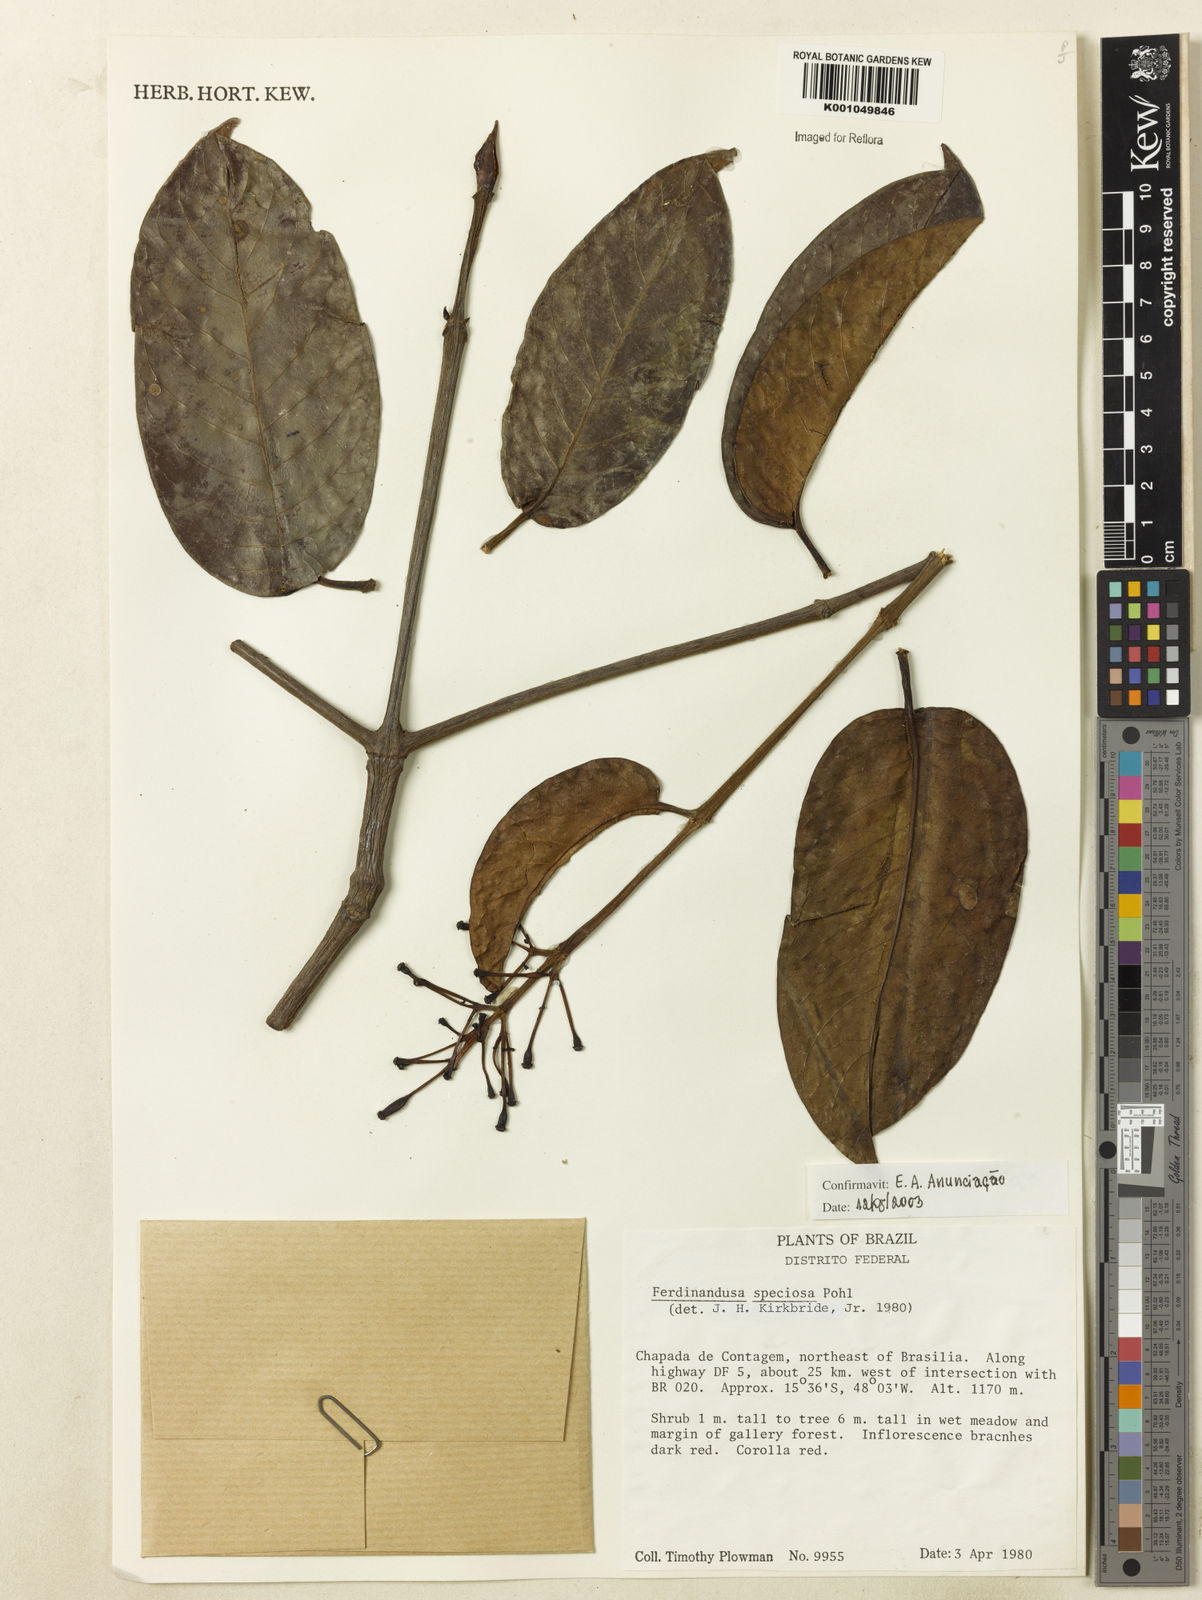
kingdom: Plantae
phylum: Tracheophyta
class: Magnoliopsida
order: Gentianales
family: Rubiaceae
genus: Ferdinandusa
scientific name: Ferdinandusa speciosa
